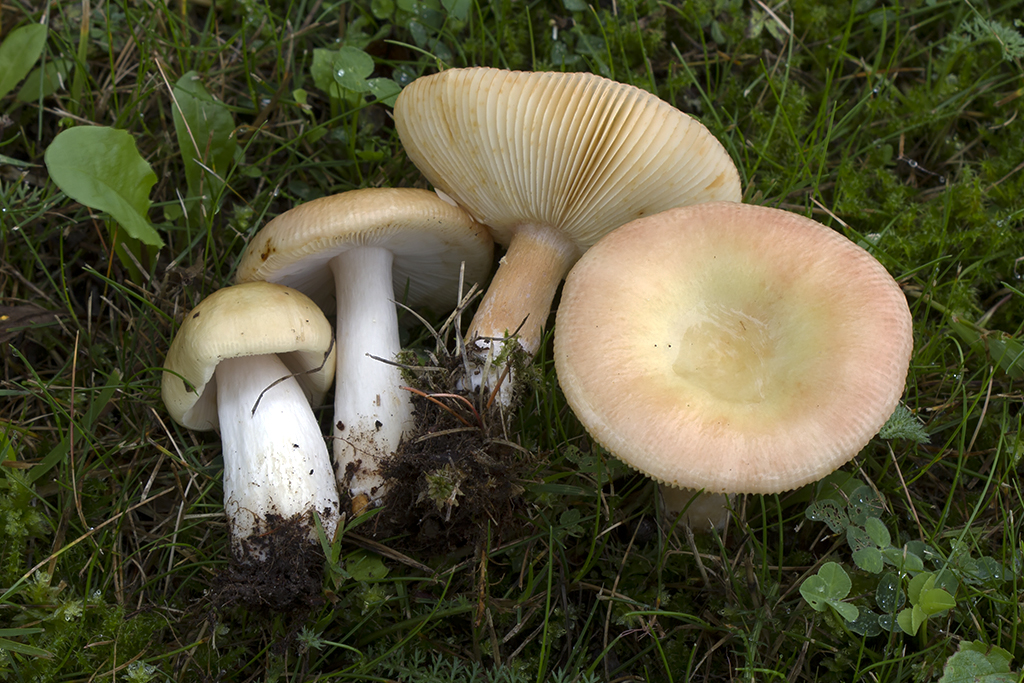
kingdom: Fungi
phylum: Basidiomycota
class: Agaricomycetes
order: Russulales
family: Russulaceae
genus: Russula
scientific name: Russula versicolor
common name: foranderlig skørhat
